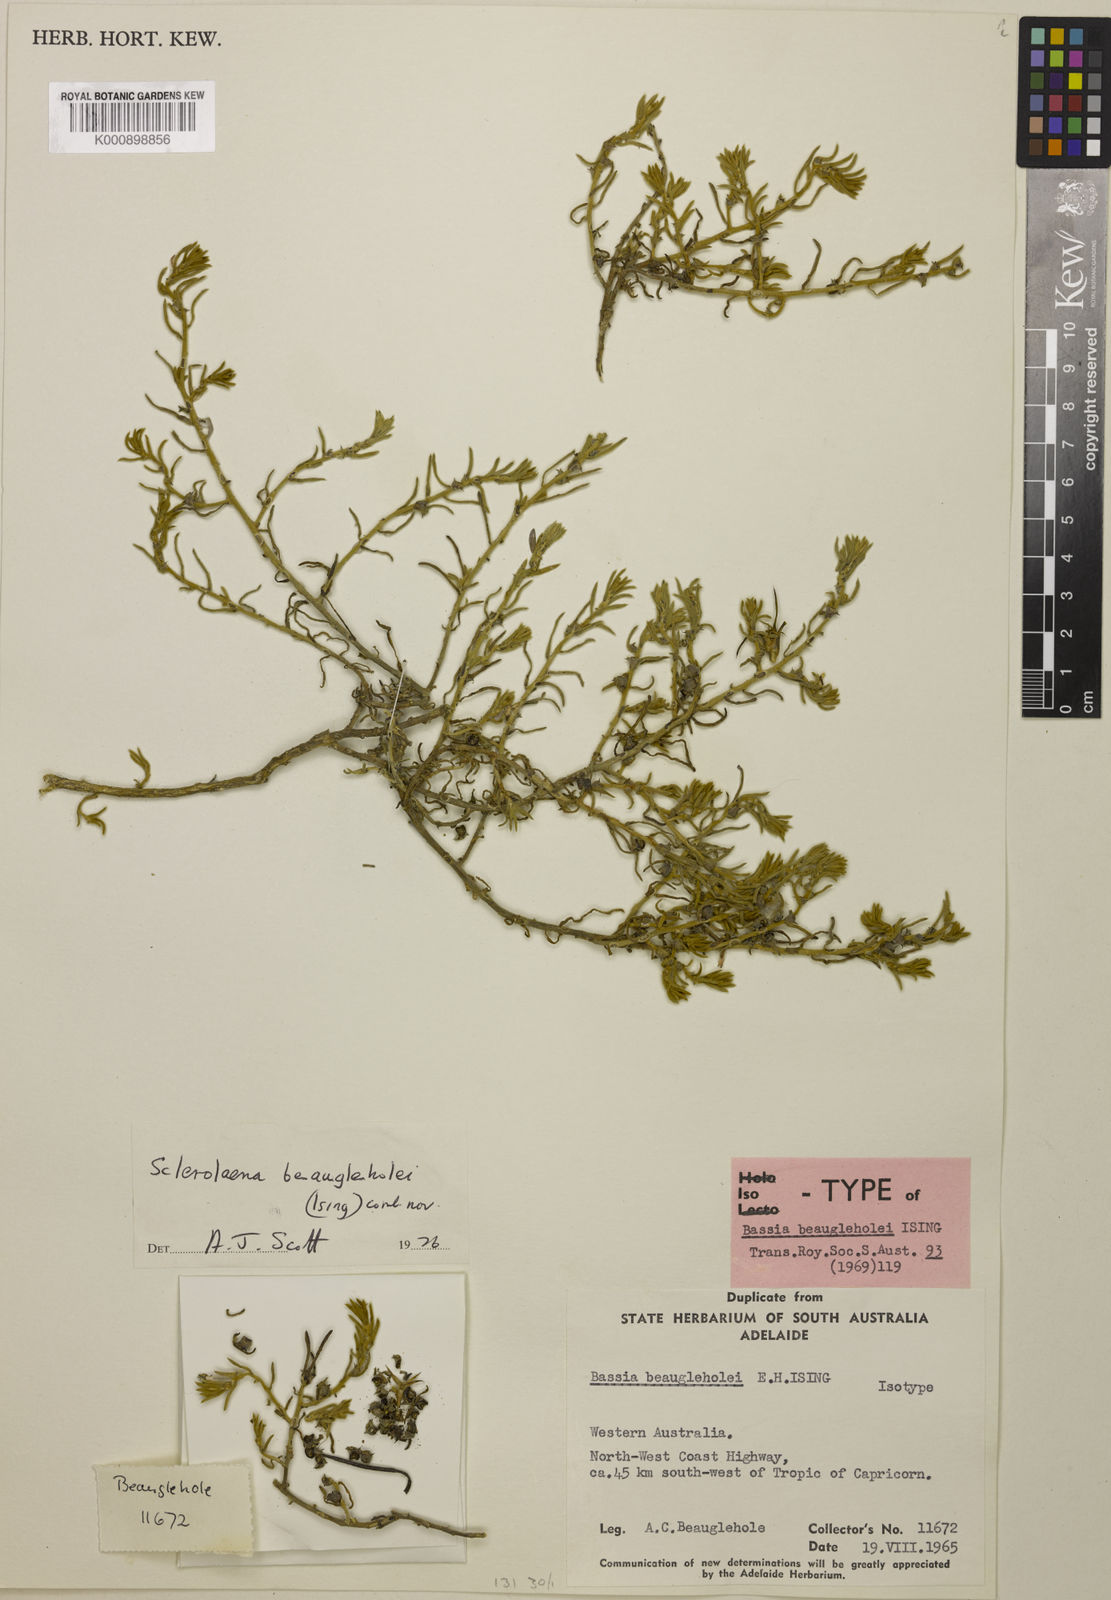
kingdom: Plantae
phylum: Tracheophyta
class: Magnoliopsida
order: Caryophyllales
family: Amaranthaceae
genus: Sclerolaena
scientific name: Sclerolaena diacantha
